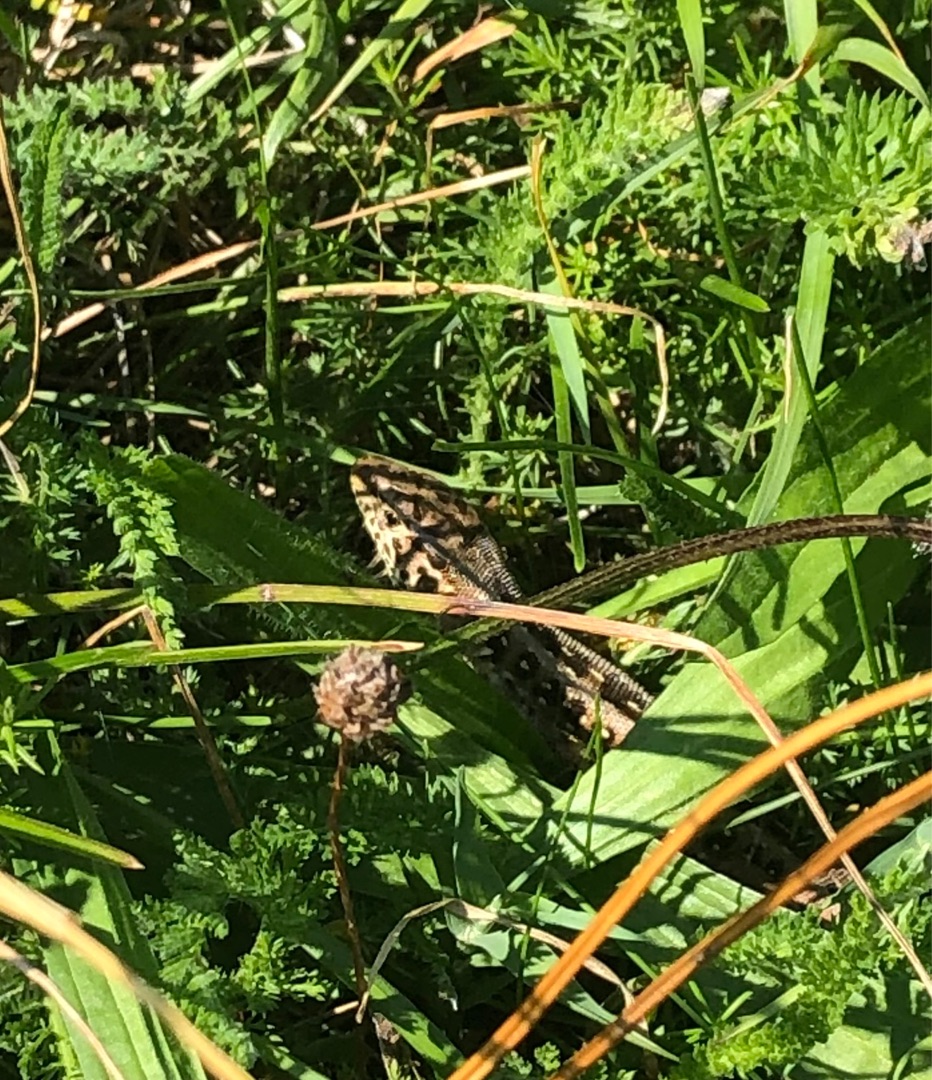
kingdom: Animalia
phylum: Chordata
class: Squamata
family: Lacertidae
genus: Lacerta
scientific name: Lacerta agilis
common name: Markfirben
